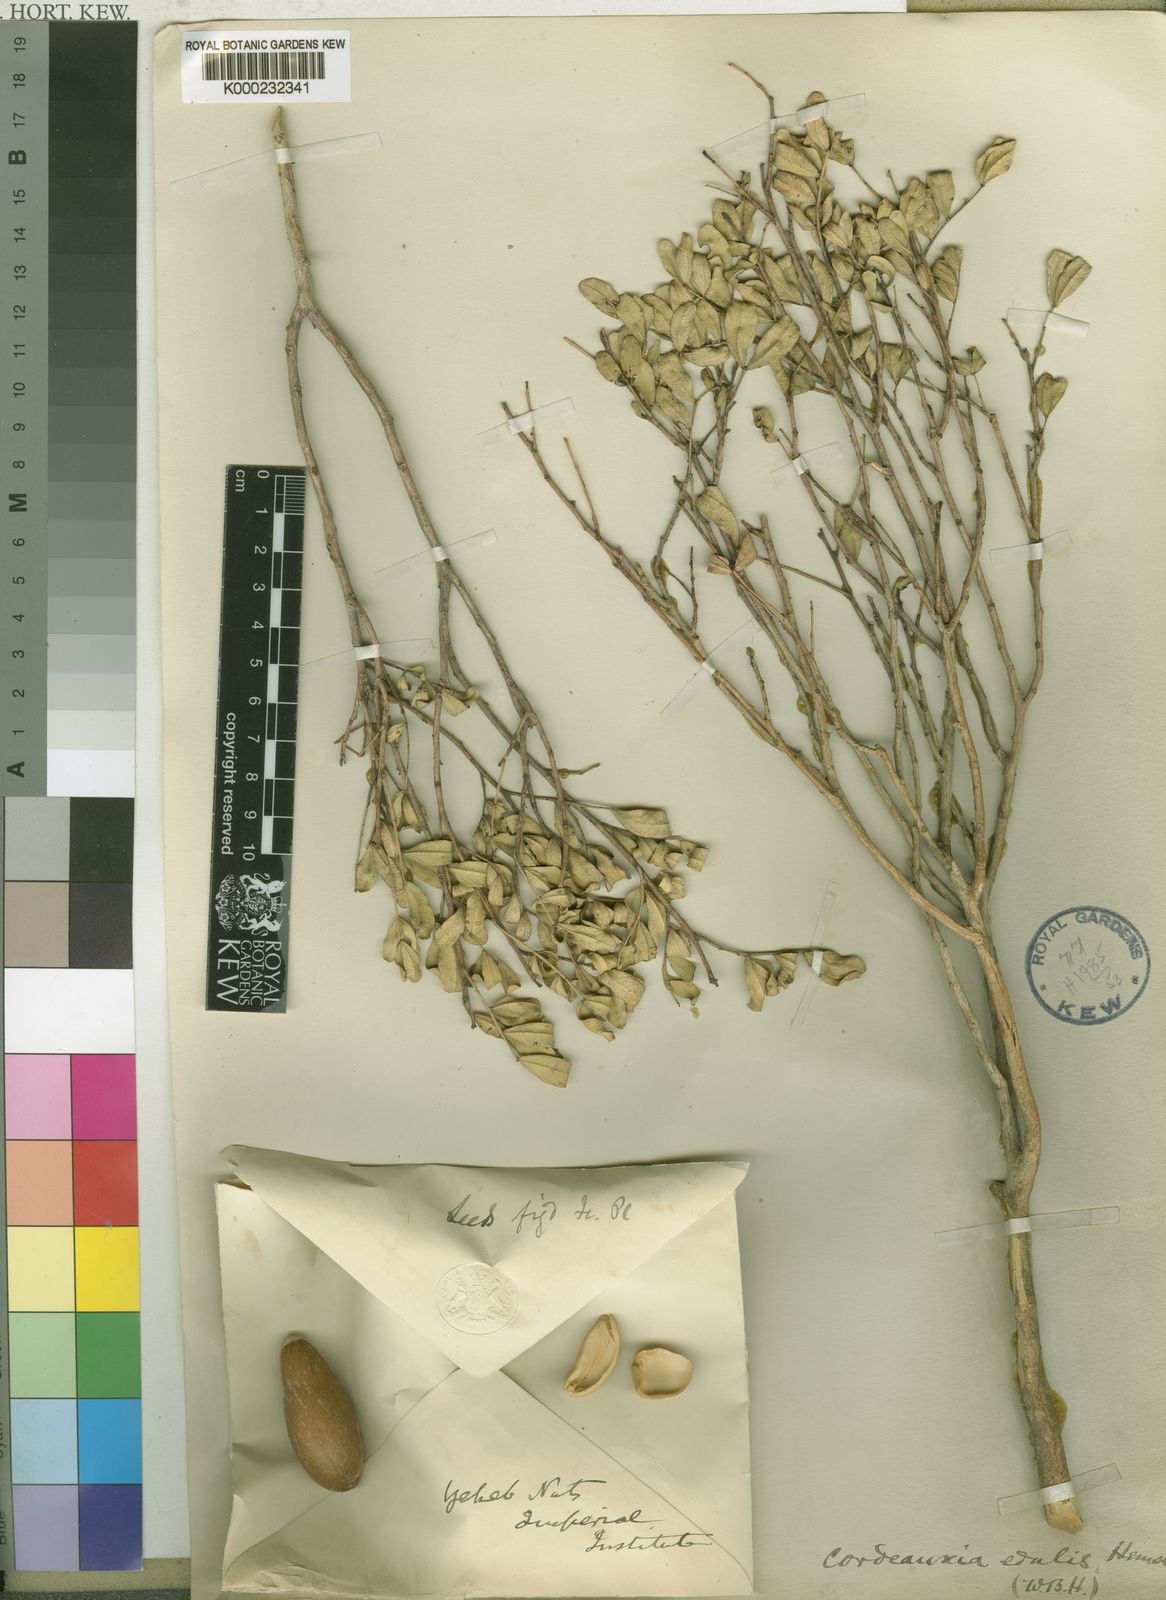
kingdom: Plantae
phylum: Tracheophyta
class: Magnoliopsida
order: Fabales
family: Fabaceae
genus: Cordeauxia
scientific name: Cordeauxia edulis
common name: Yeheb-nut-bush
